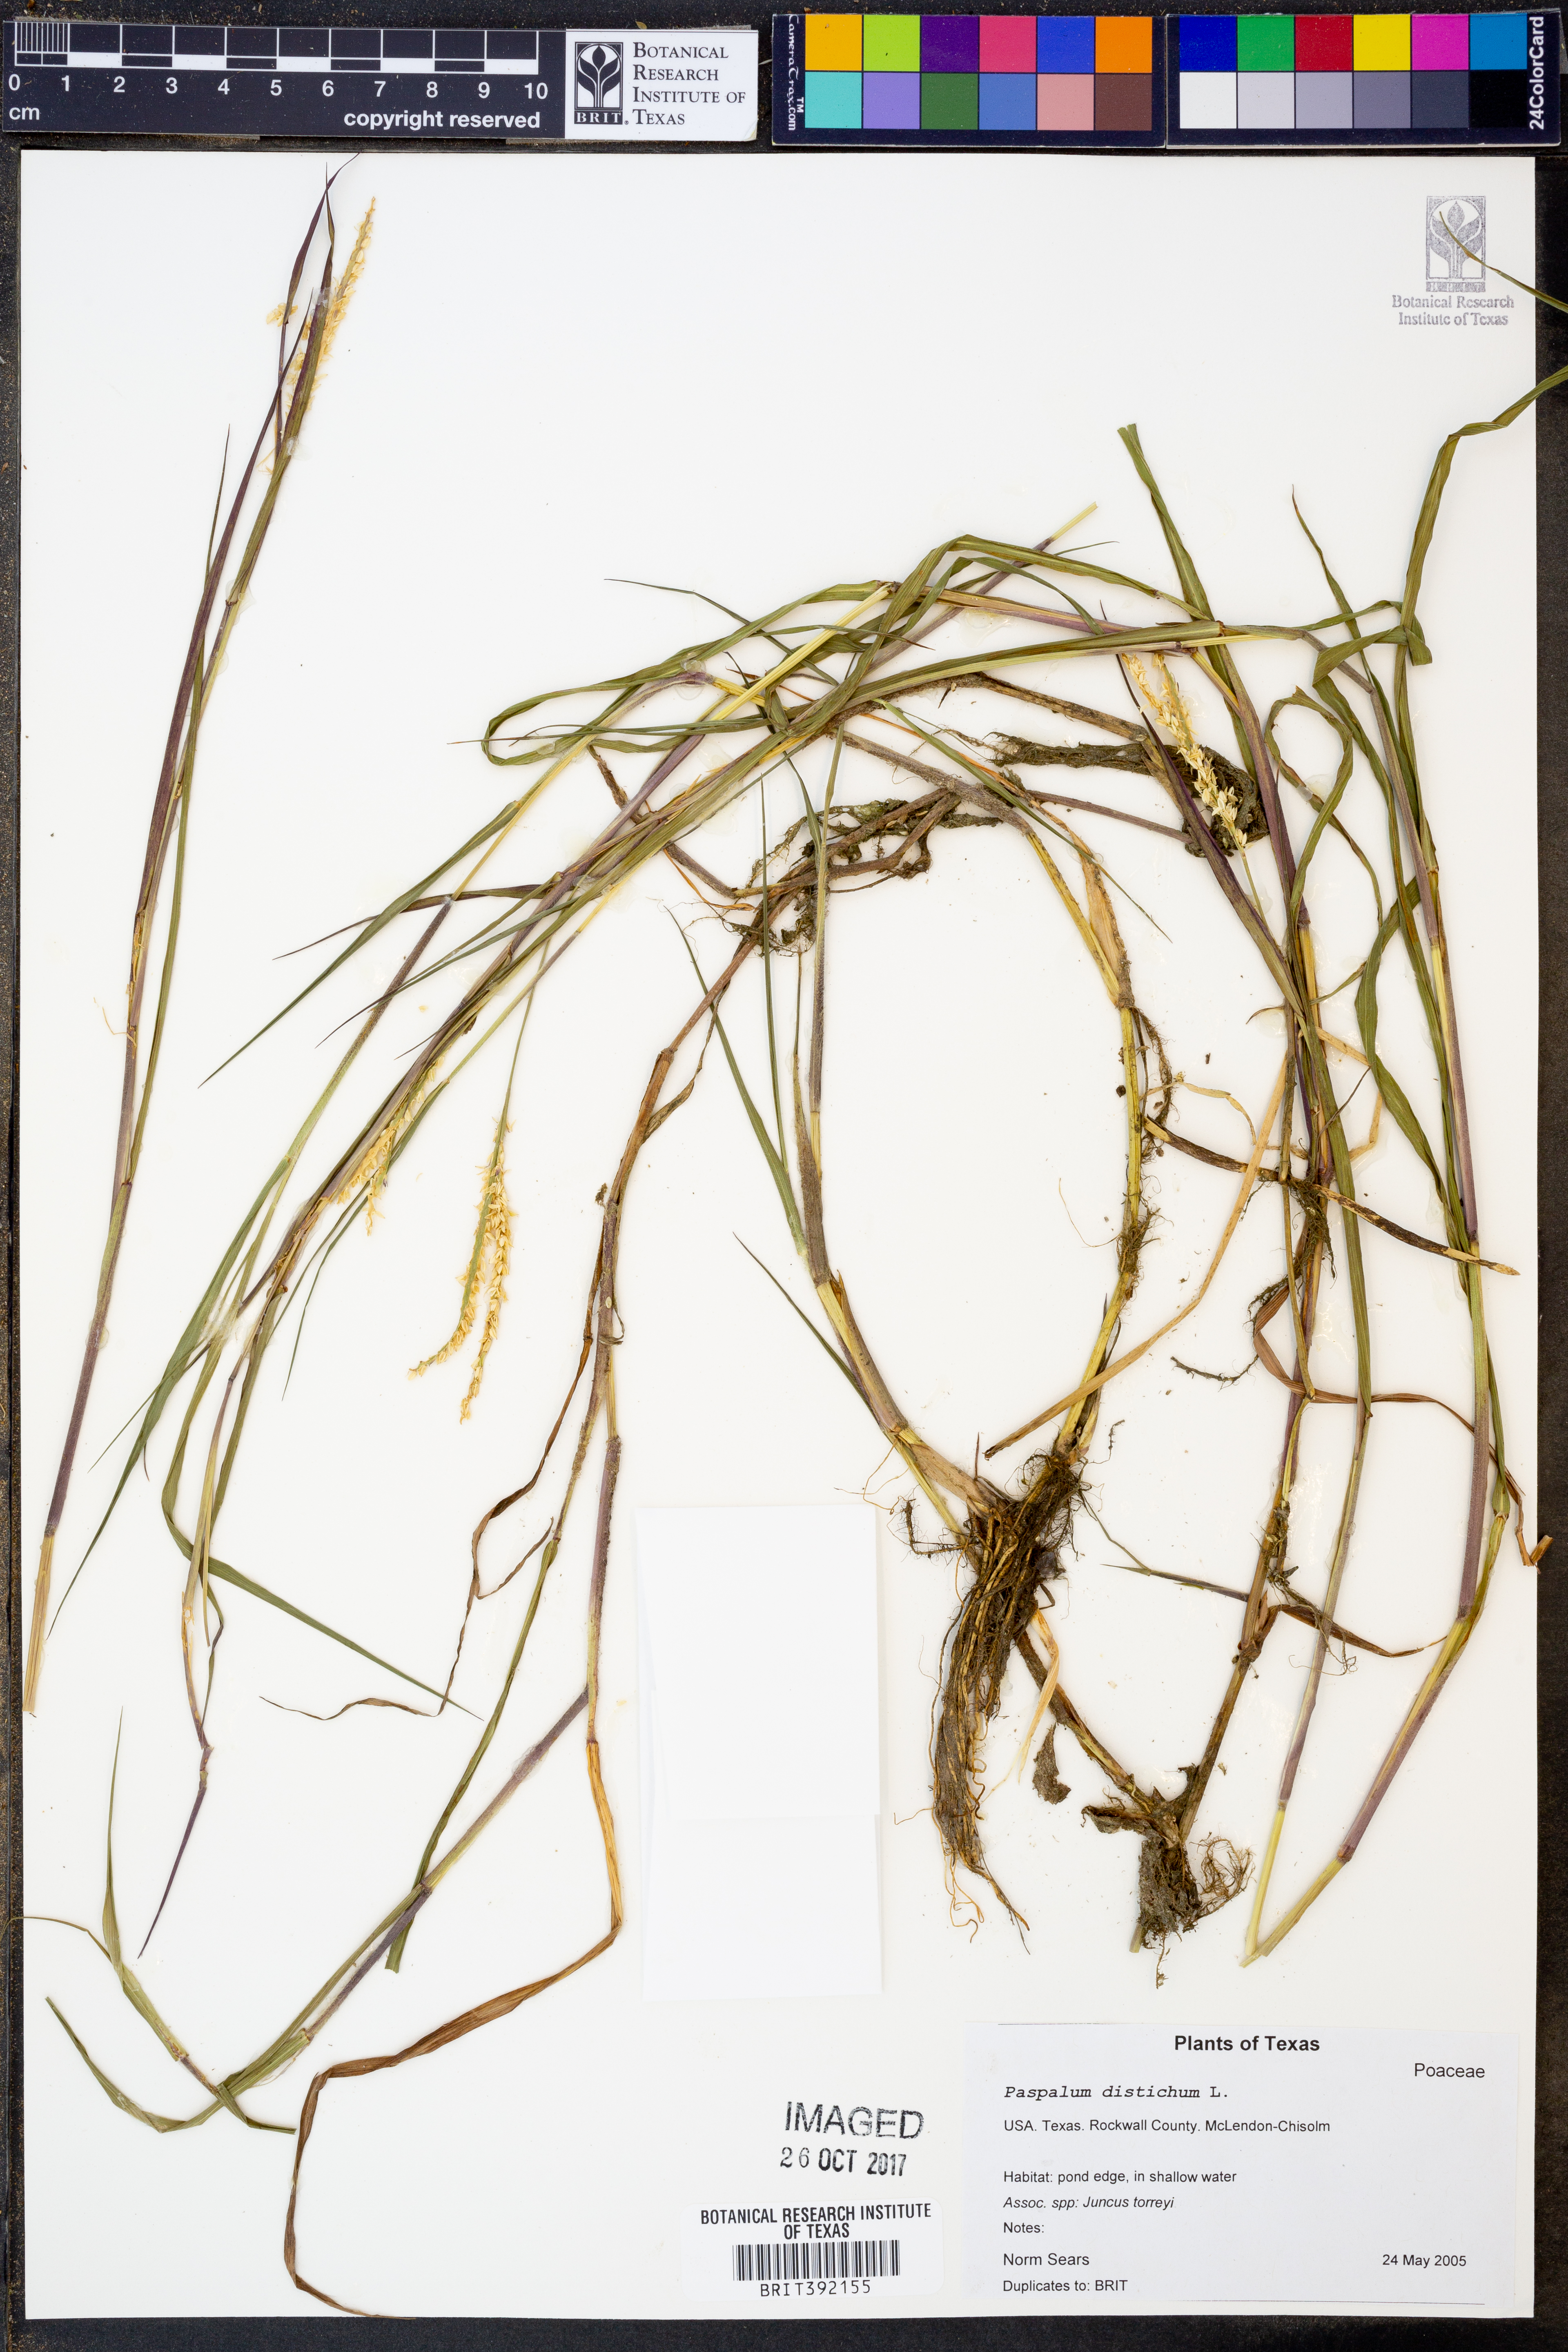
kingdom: Plantae
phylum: Tracheophyta
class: Liliopsida
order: Poales
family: Poaceae
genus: Paspalum
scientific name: Paspalum distichum
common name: Knotgrass
